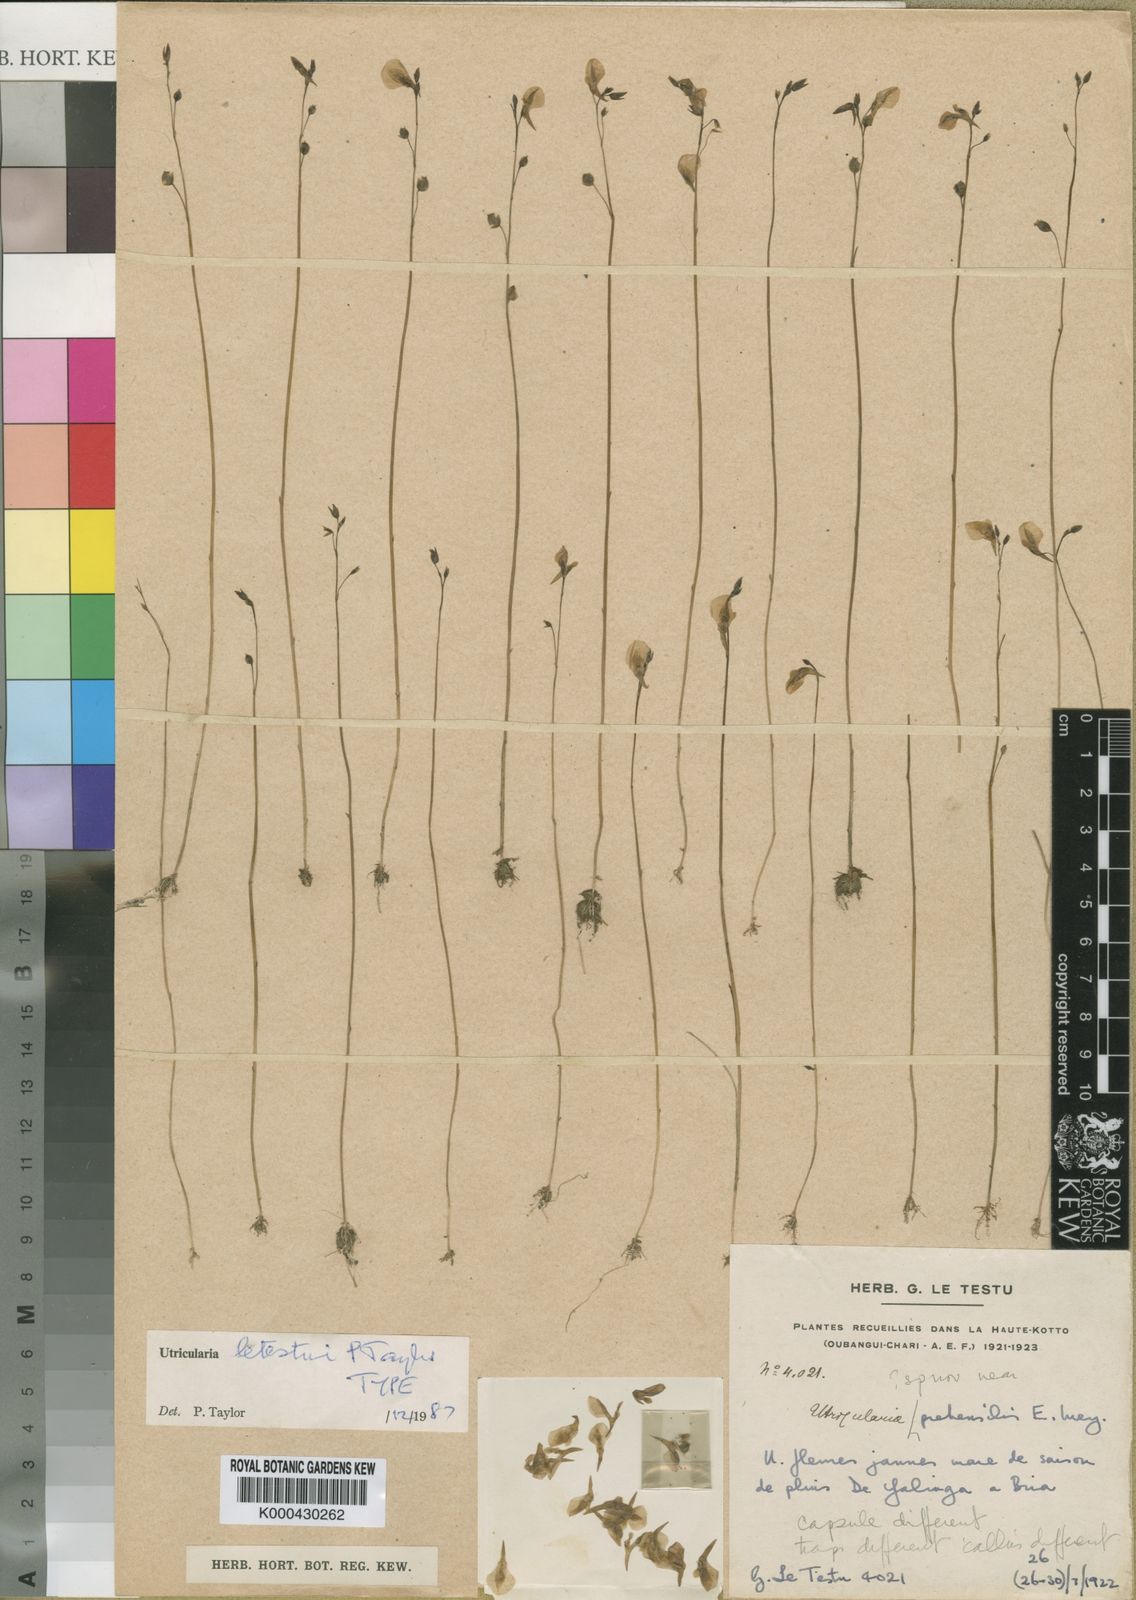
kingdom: Plantae
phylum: Tracheophyta
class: Magnoliopsida
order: Lamiales
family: Lentibulariaceae
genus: Utricularia
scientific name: Utricularia letestui
